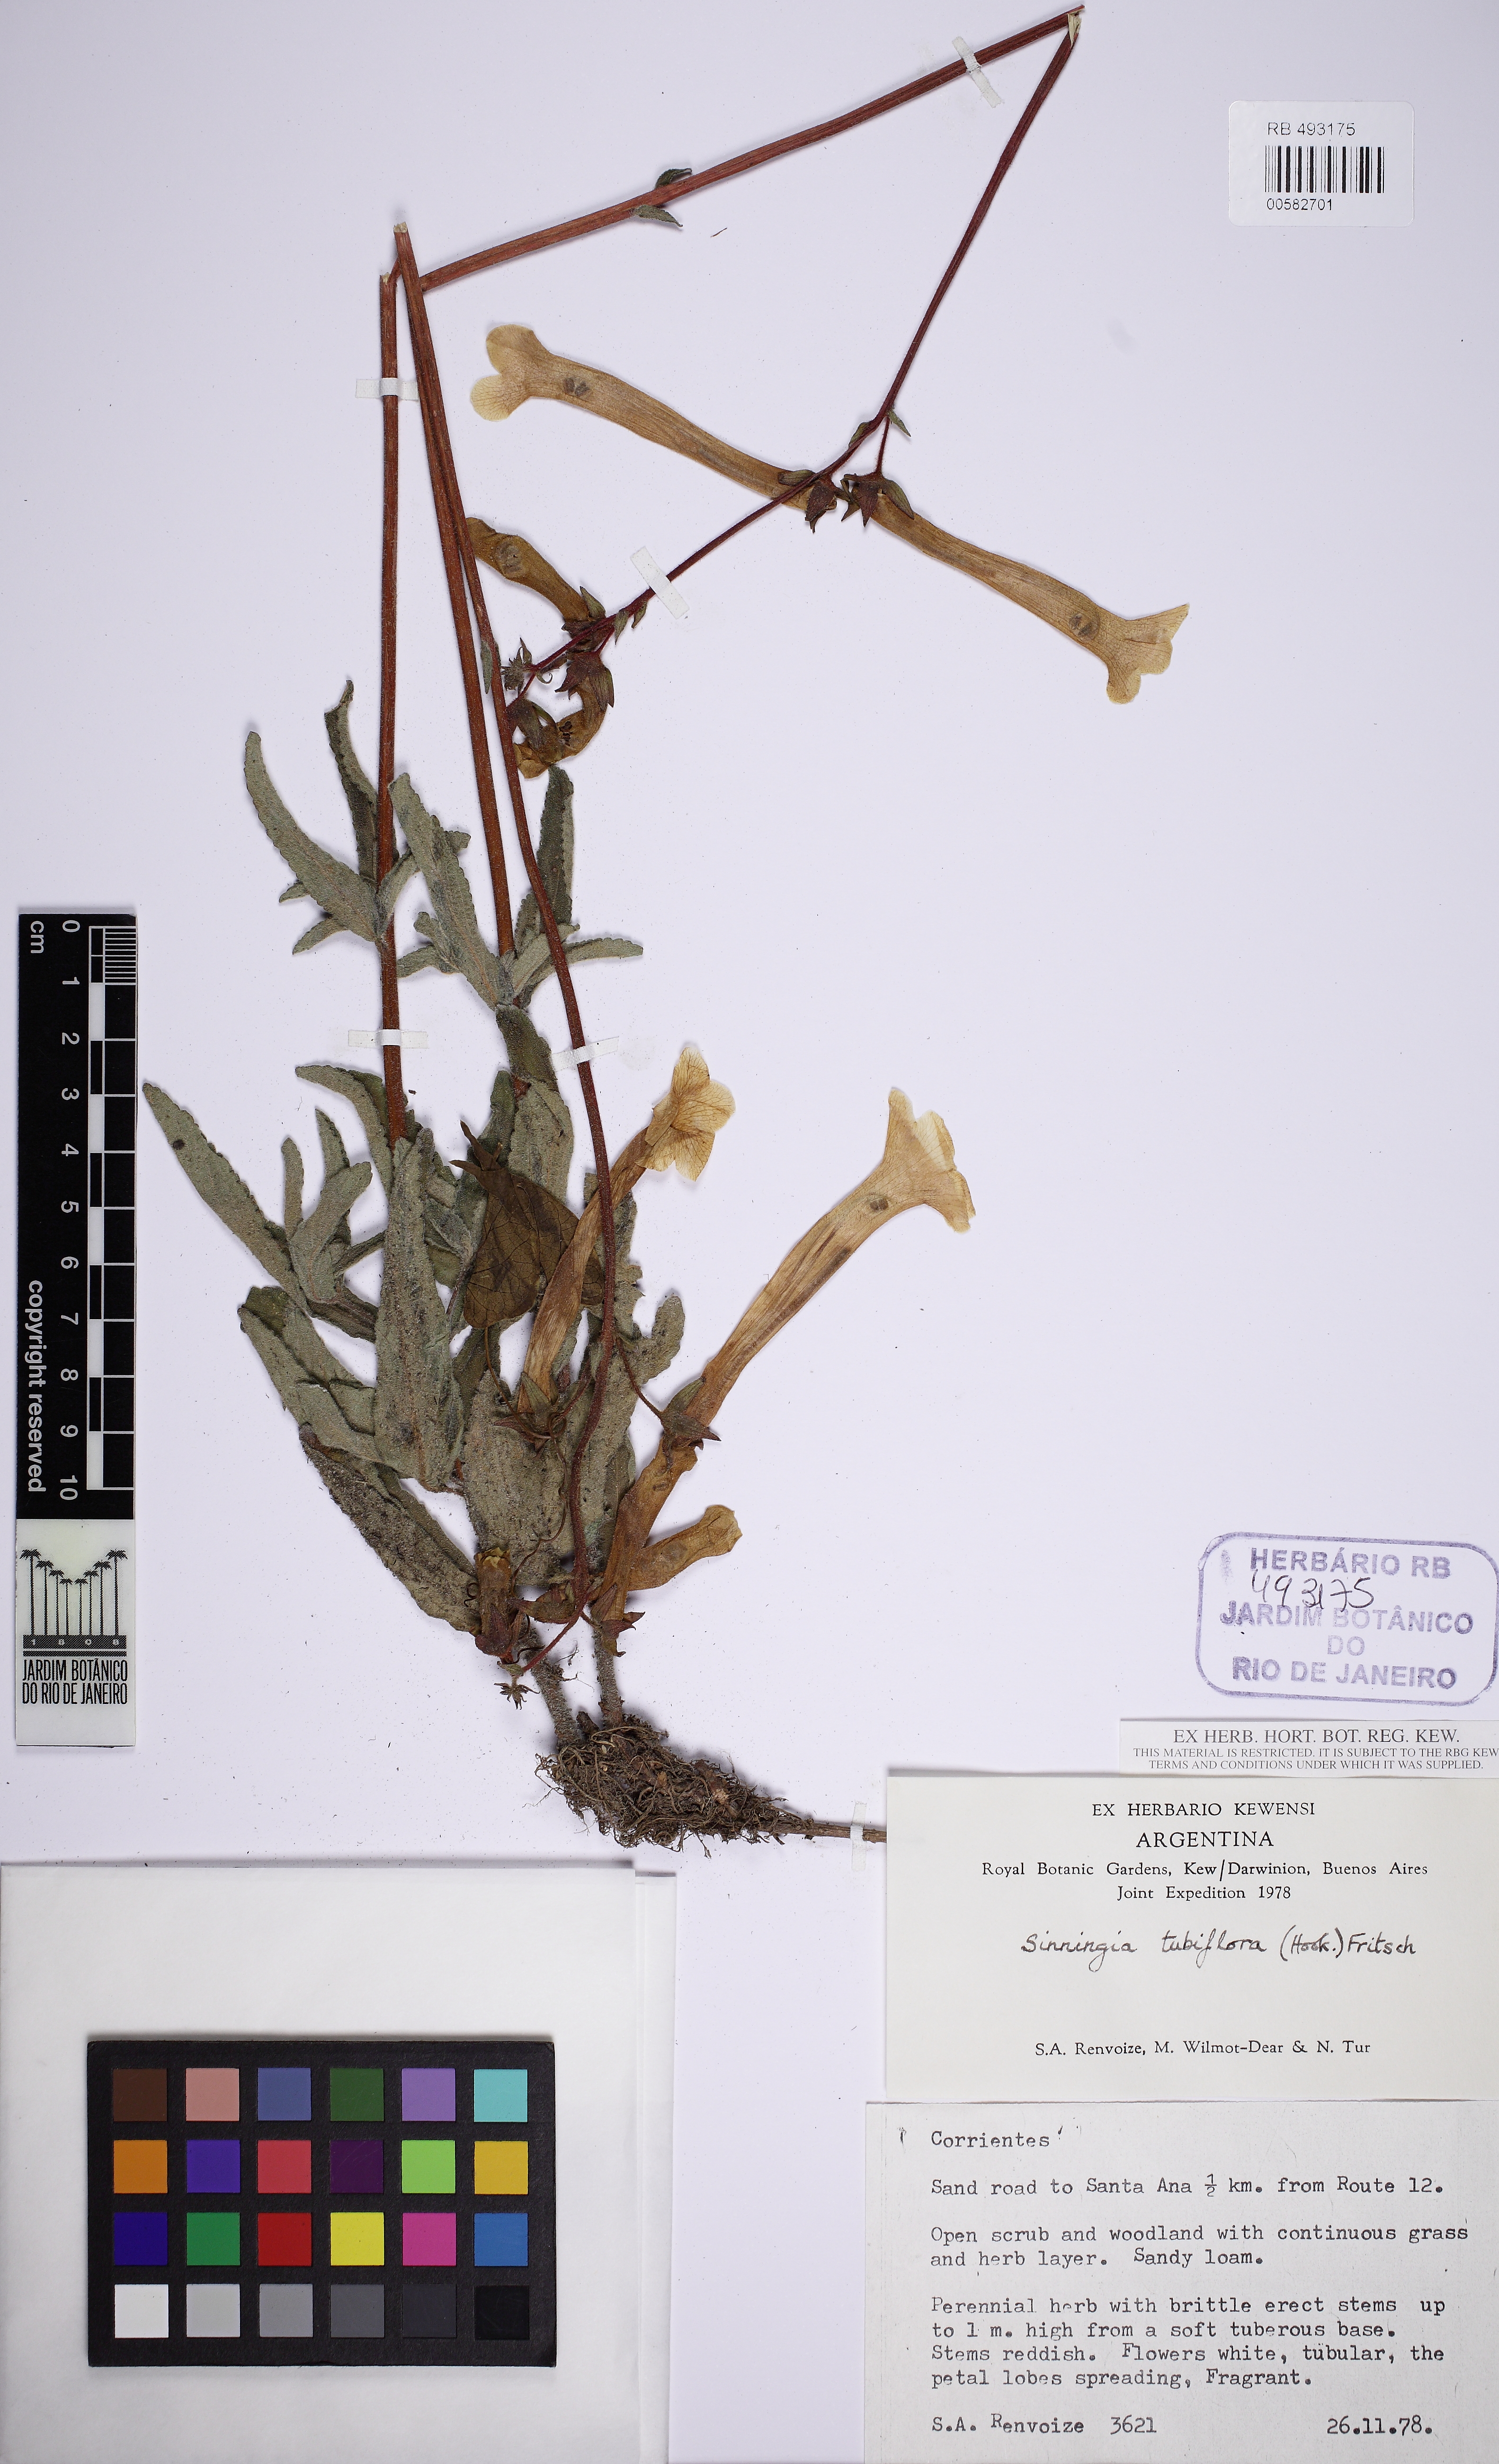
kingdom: Plantae
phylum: Tracheophyta
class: Magnoliopsida
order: Lamiales
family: Gesneriaceae
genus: Sinningia
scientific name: Sinningia tubiflora
